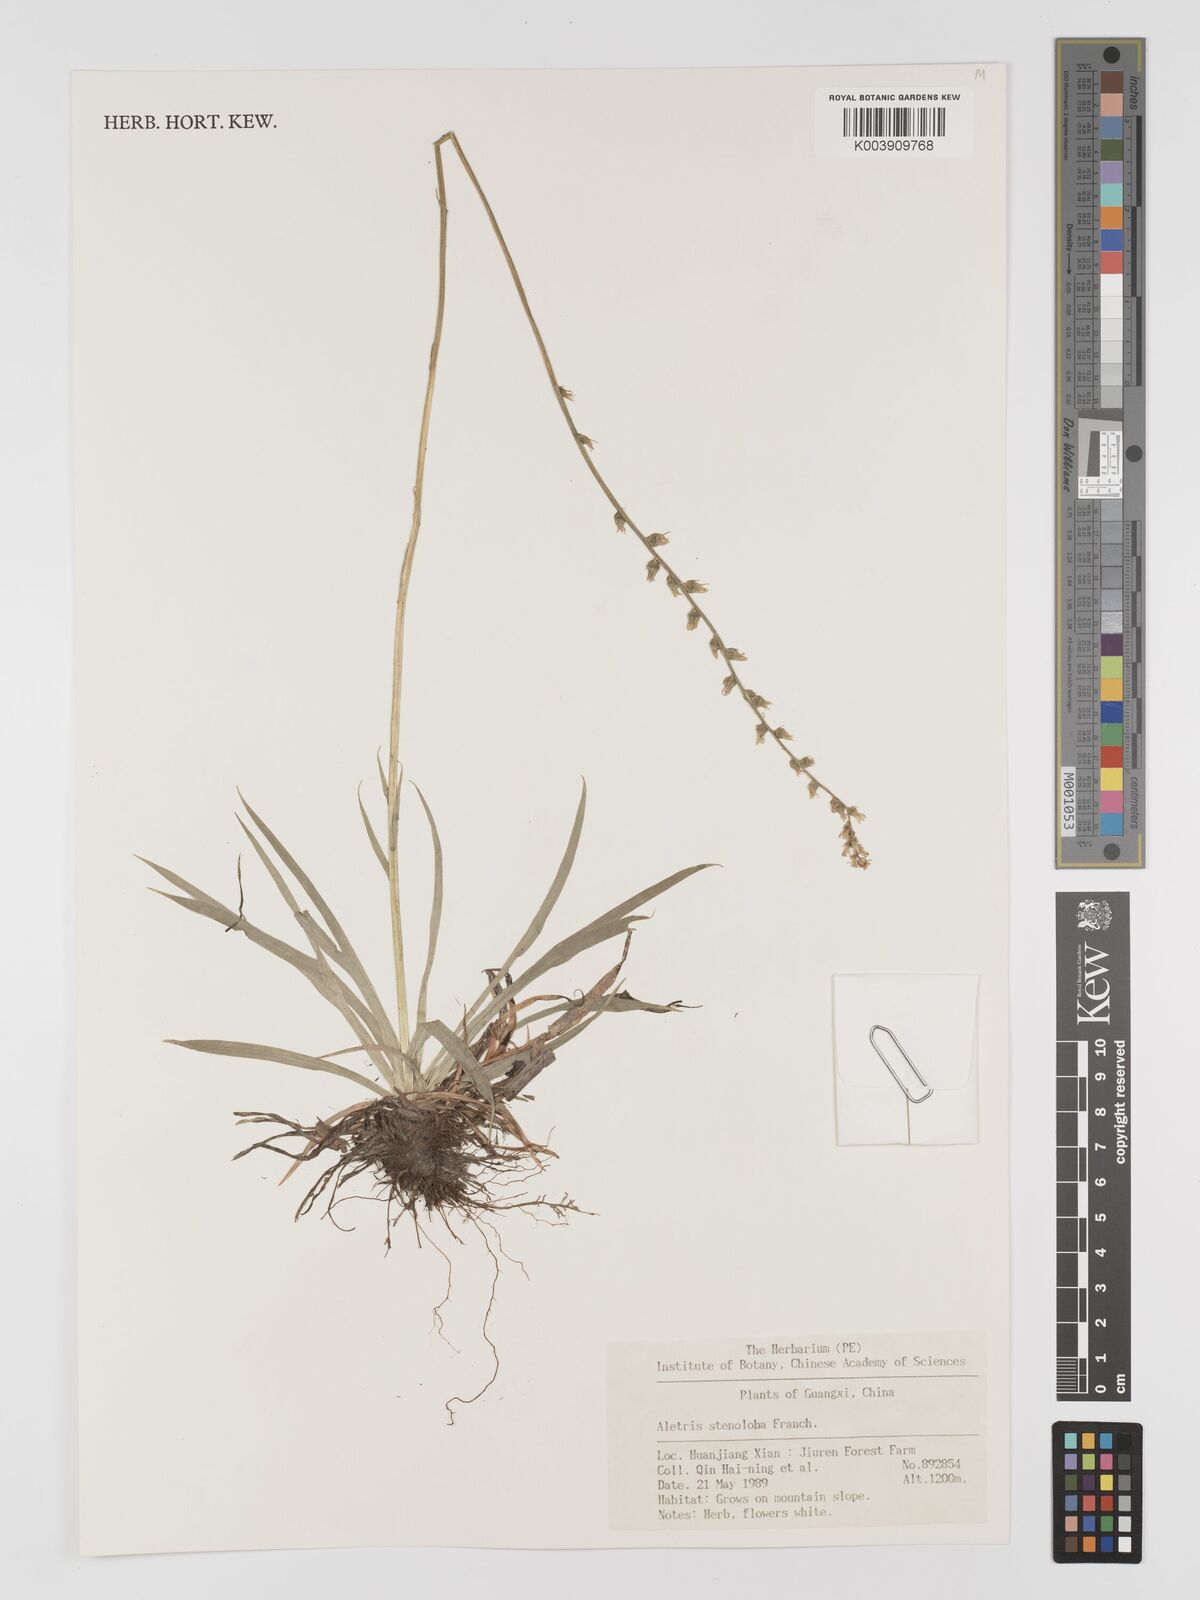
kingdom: Plantae
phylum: Tracheophyta
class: Liliopsida
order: Dioscoreales
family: Nartheciaceae
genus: Aletris
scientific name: Aletris stenoloba
